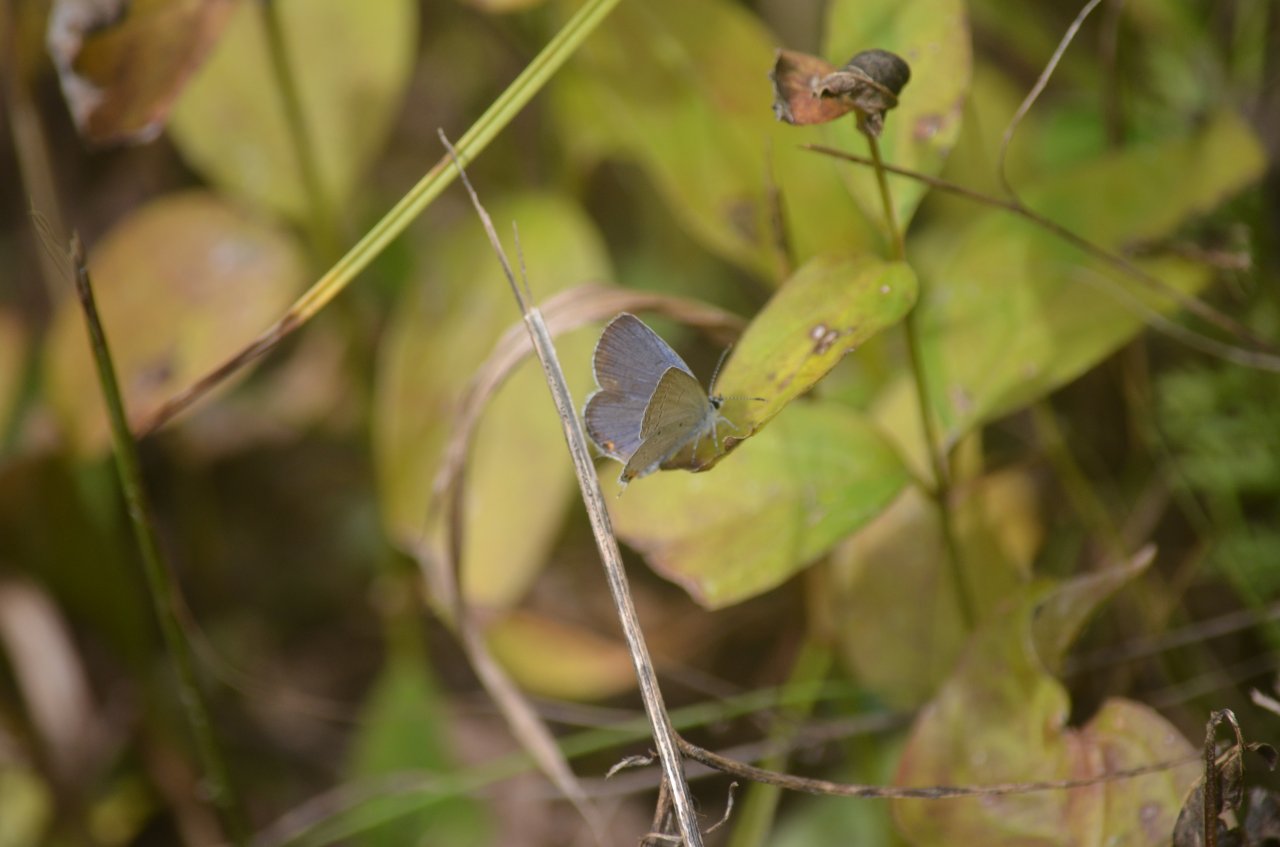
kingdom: Animalia
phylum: Arthropoda
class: Insecta
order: Lepidoptera
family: Lycaenidae
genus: Elkalyce
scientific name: Elkalyce comyntas
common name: Eastern Tailed-Blue
